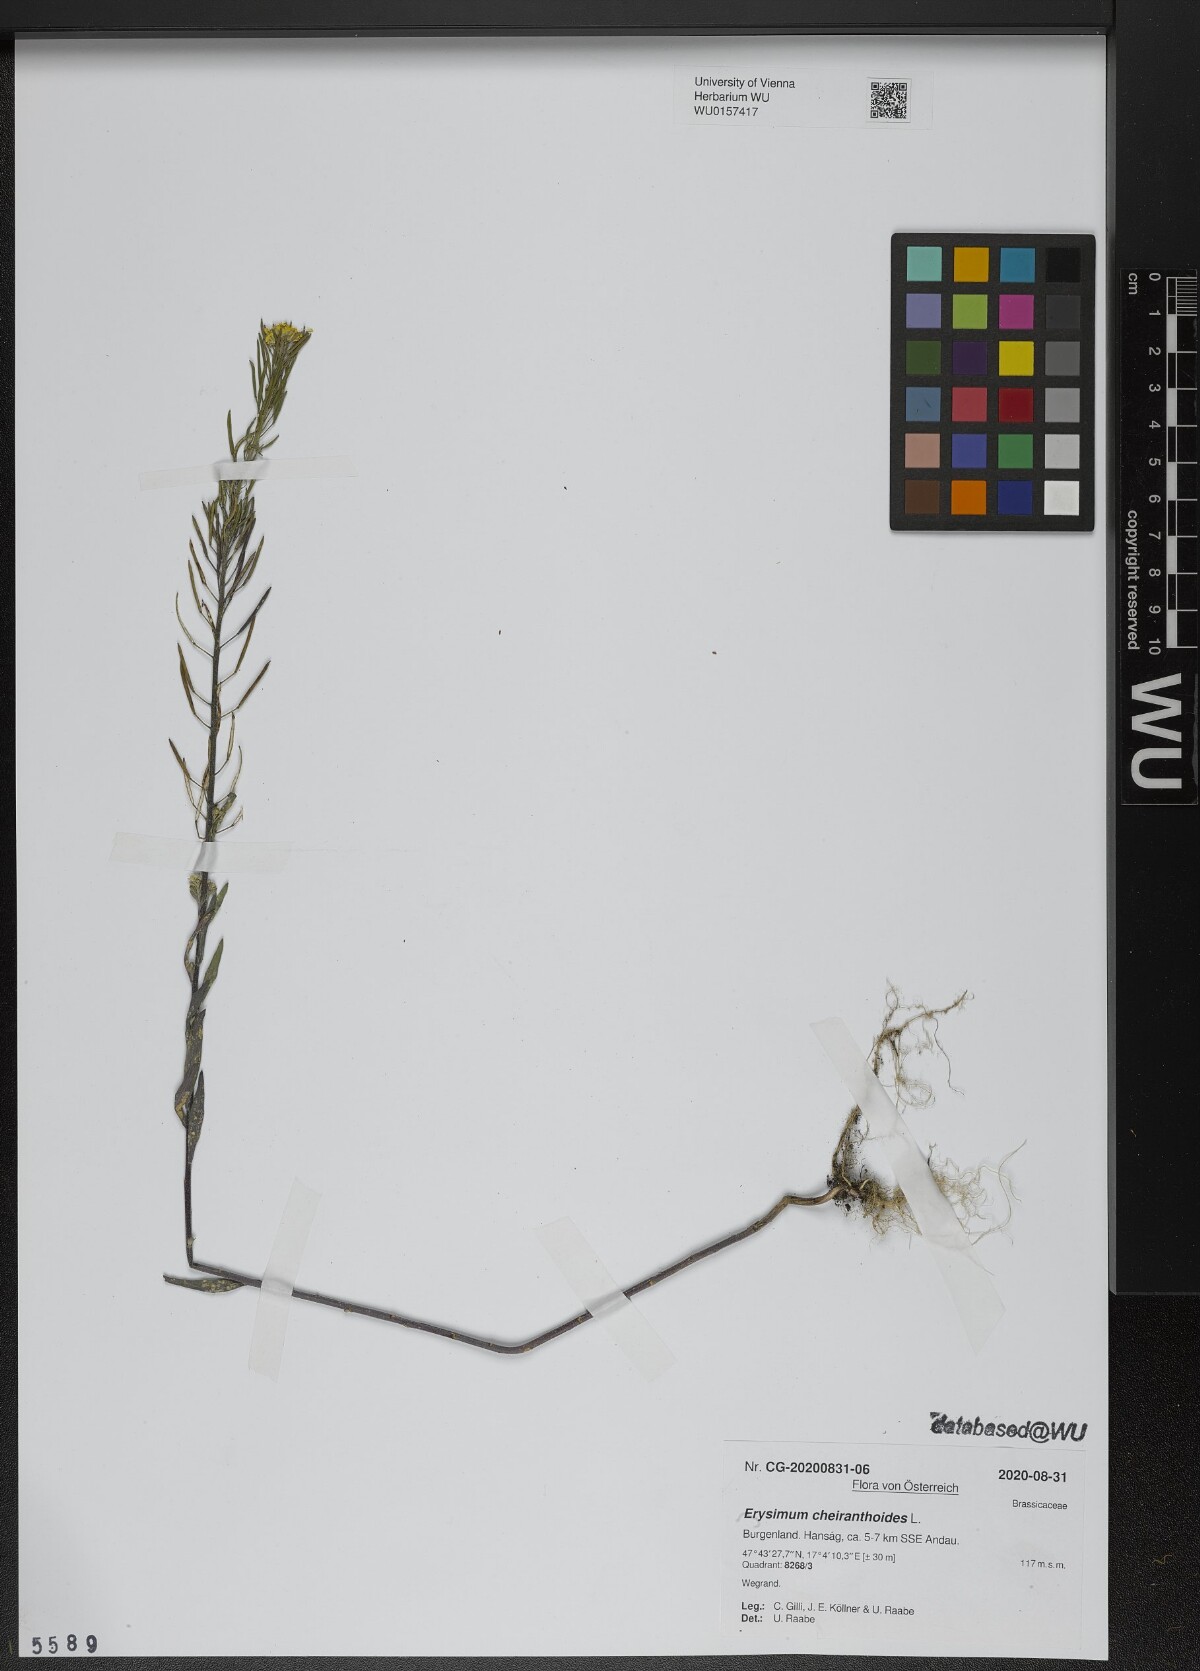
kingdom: Plantae
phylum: Tracheophyta
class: Magnoliopsida
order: Brassicales
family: Brassicaceae
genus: Erysimum
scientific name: Erysimum cheiranthoides
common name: Treacle mustard
